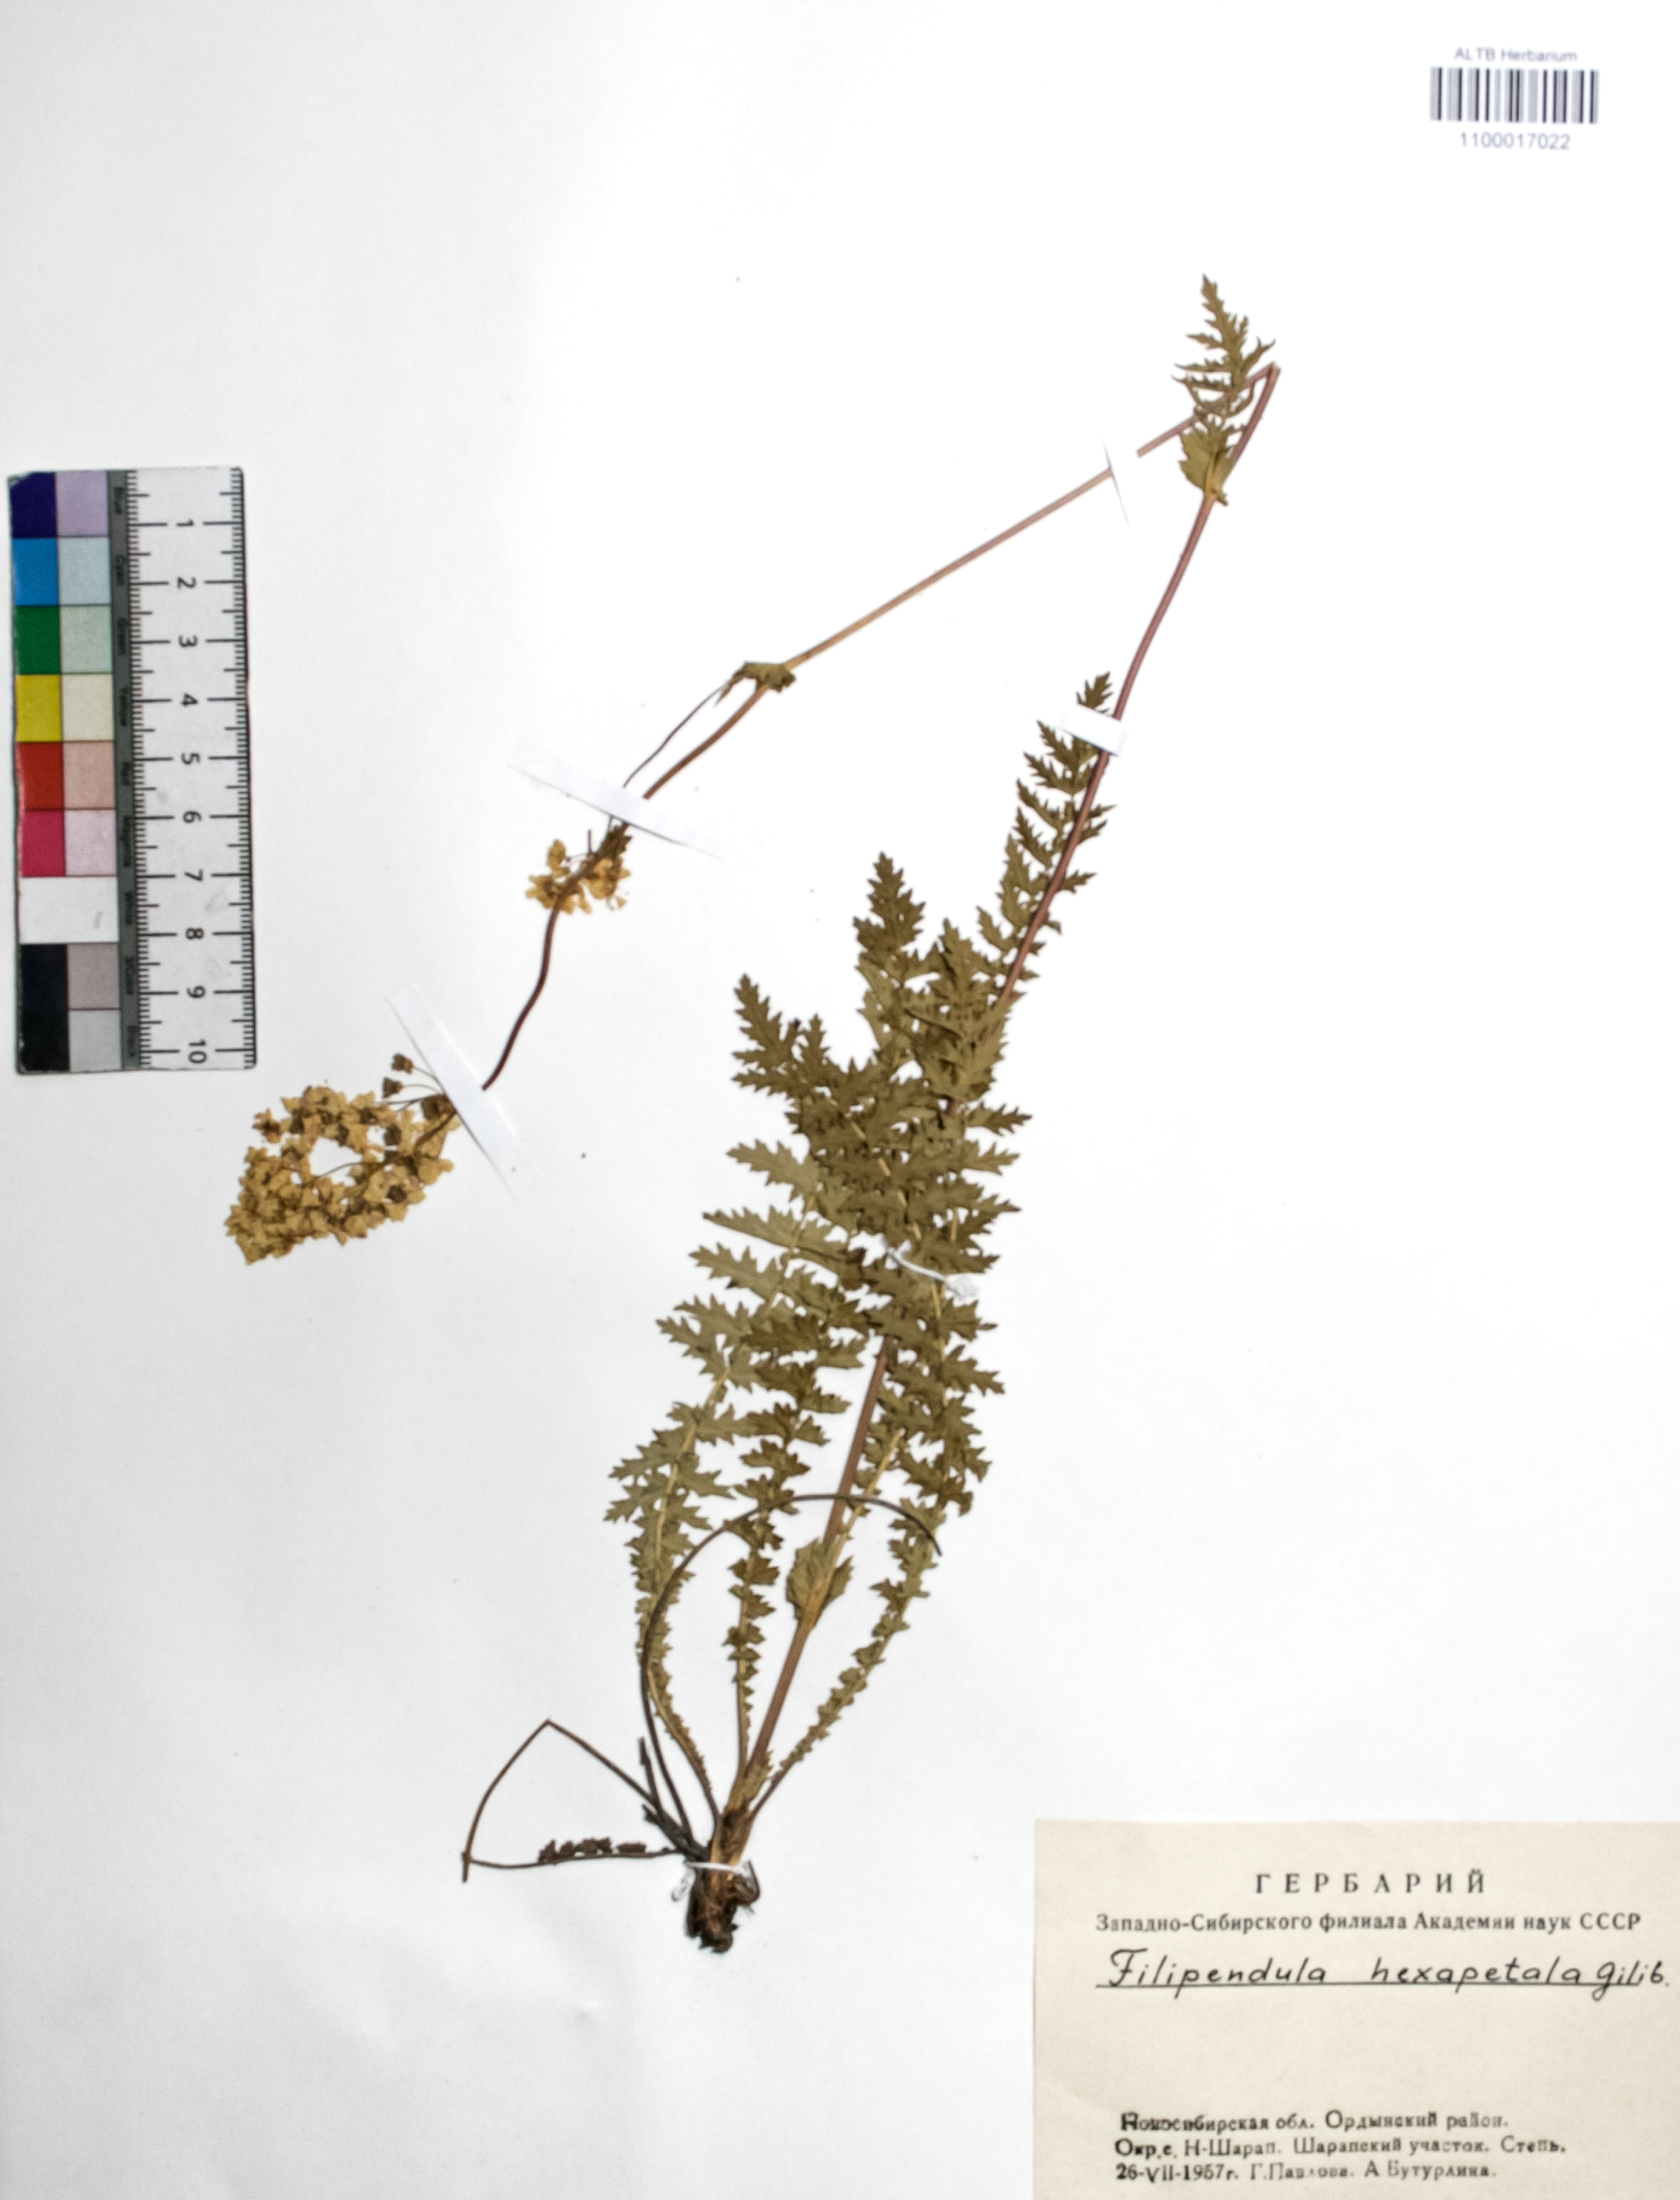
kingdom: Plantae
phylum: Tracheophyta
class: Magnoliopsida
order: Rosales
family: Rosaceae
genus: Filipendula
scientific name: Filipendula vulgaris
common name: Dropwort
